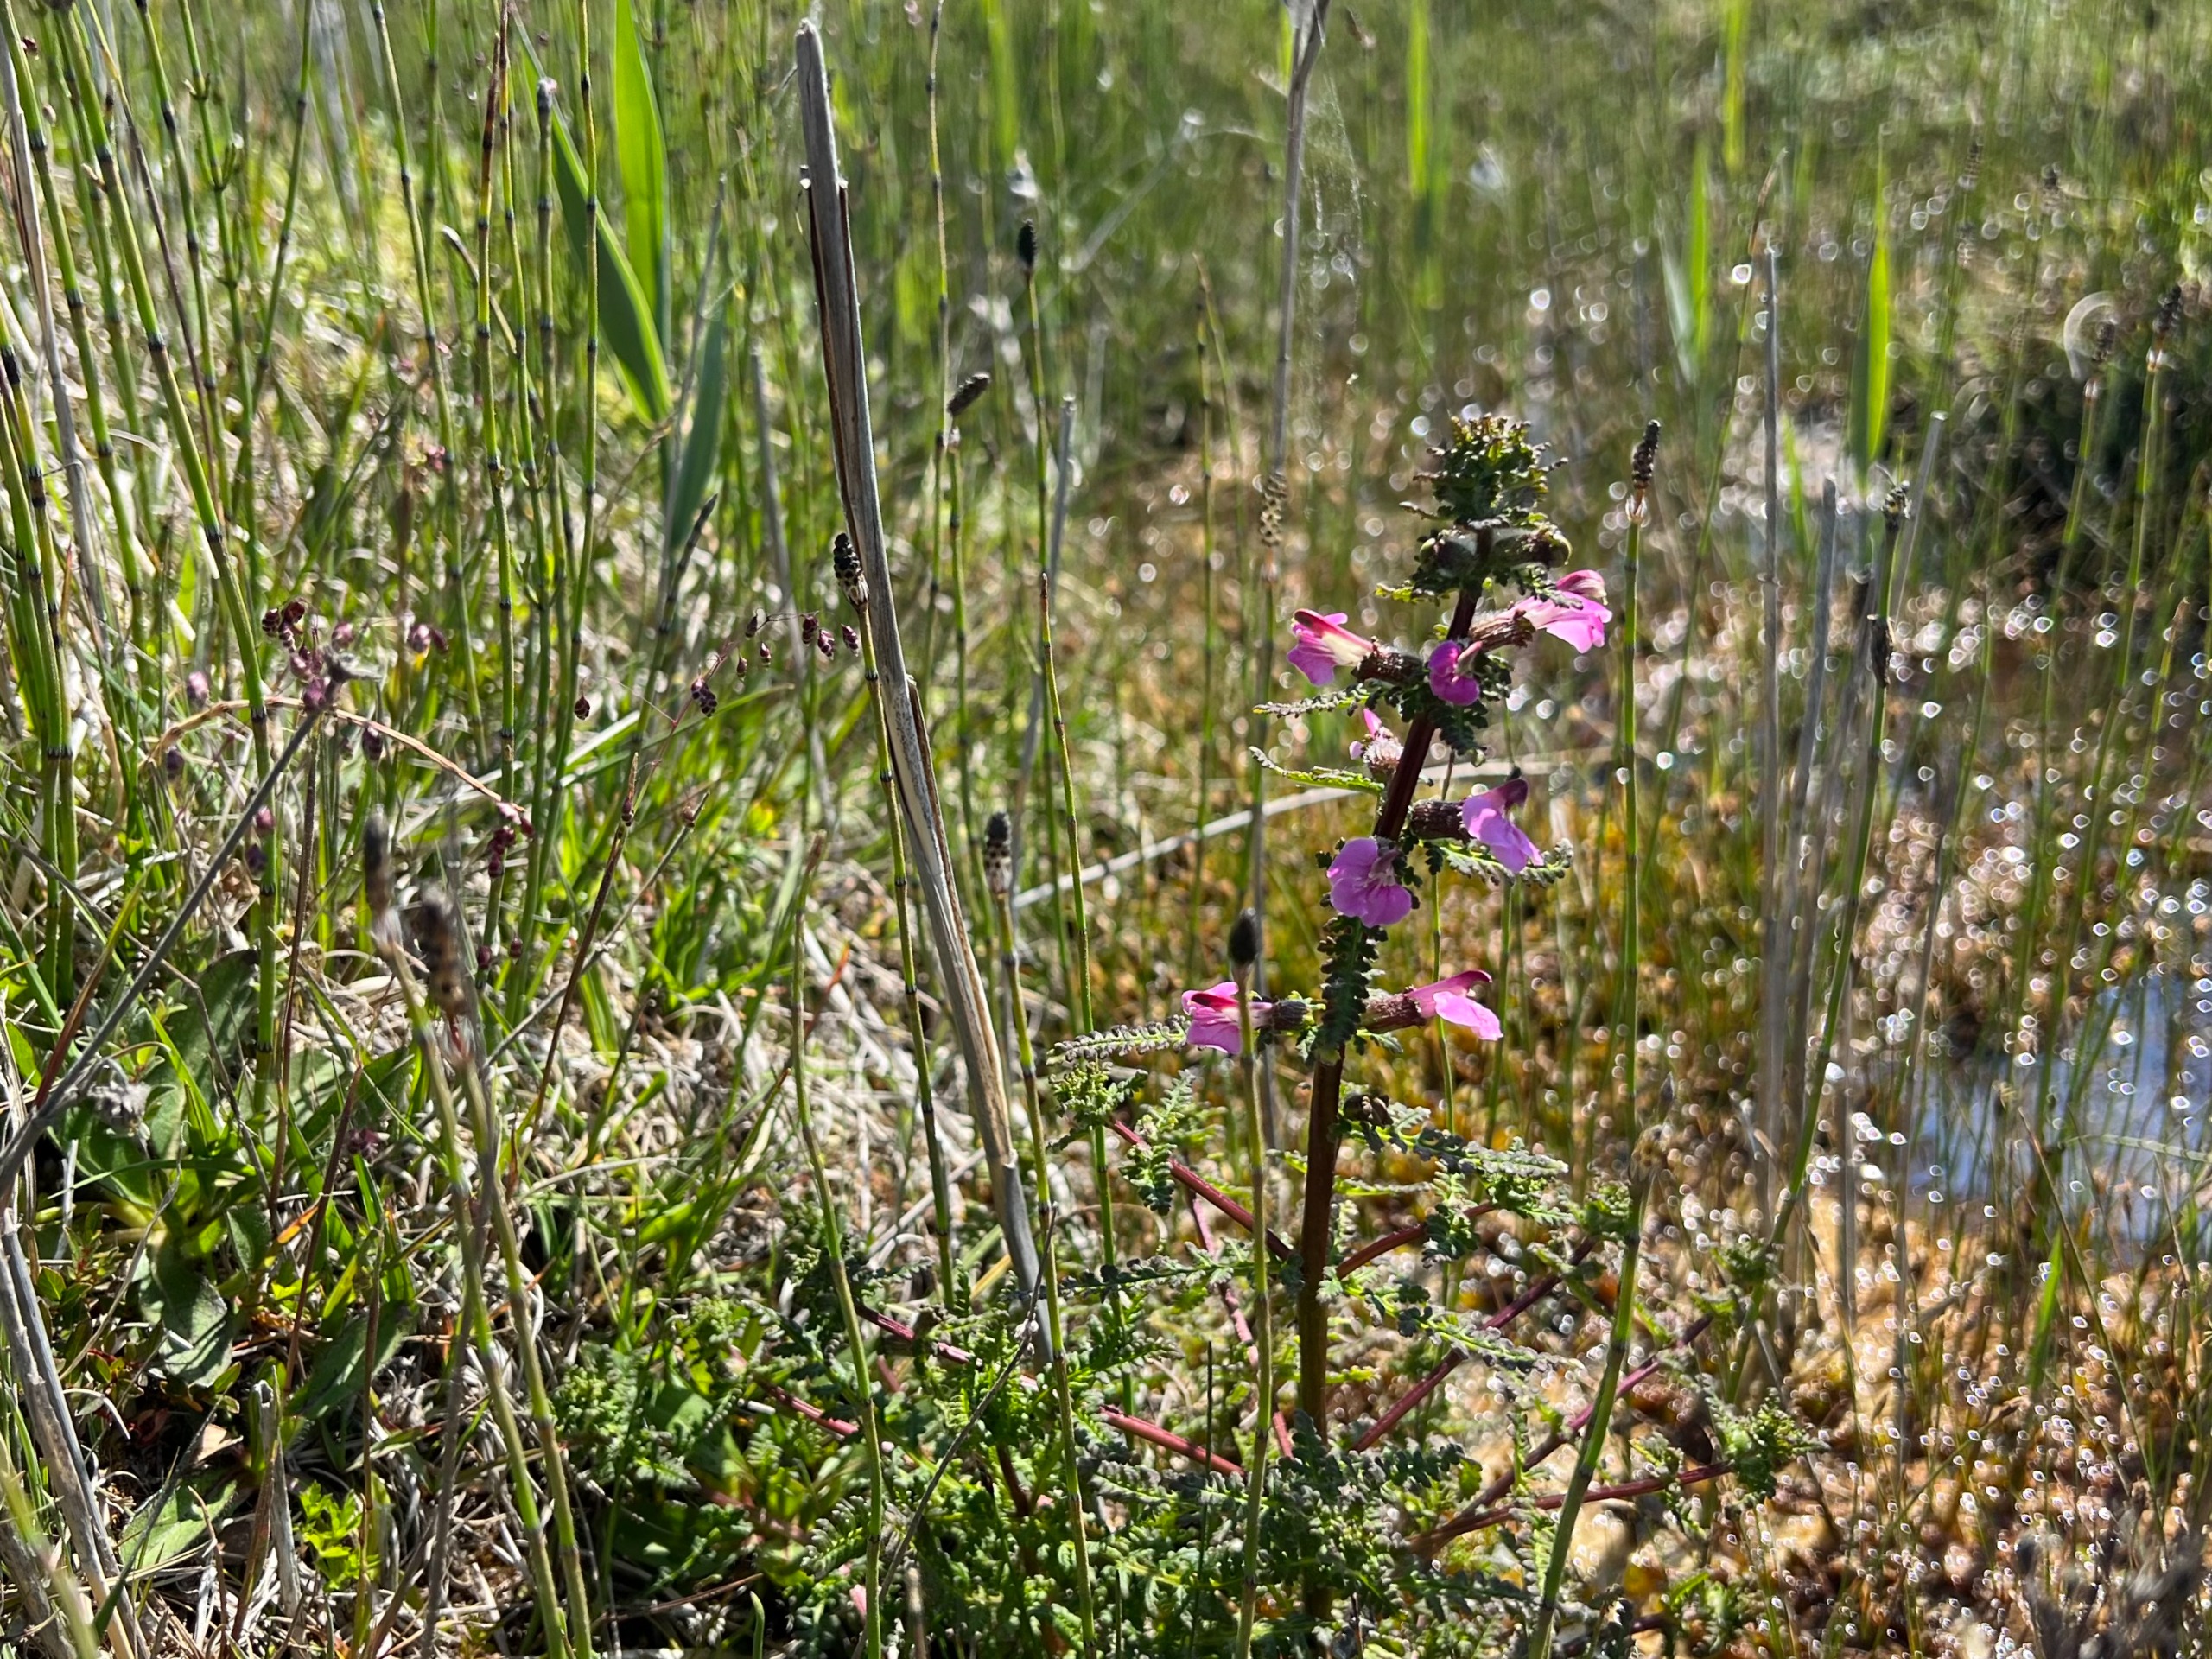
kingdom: Plantae
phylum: Tracheophyta
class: Magnoliopsida
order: Lamiales
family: Orobanchaceae
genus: Pedicularis
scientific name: Pedicularis palustris
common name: Eng-troldurt
